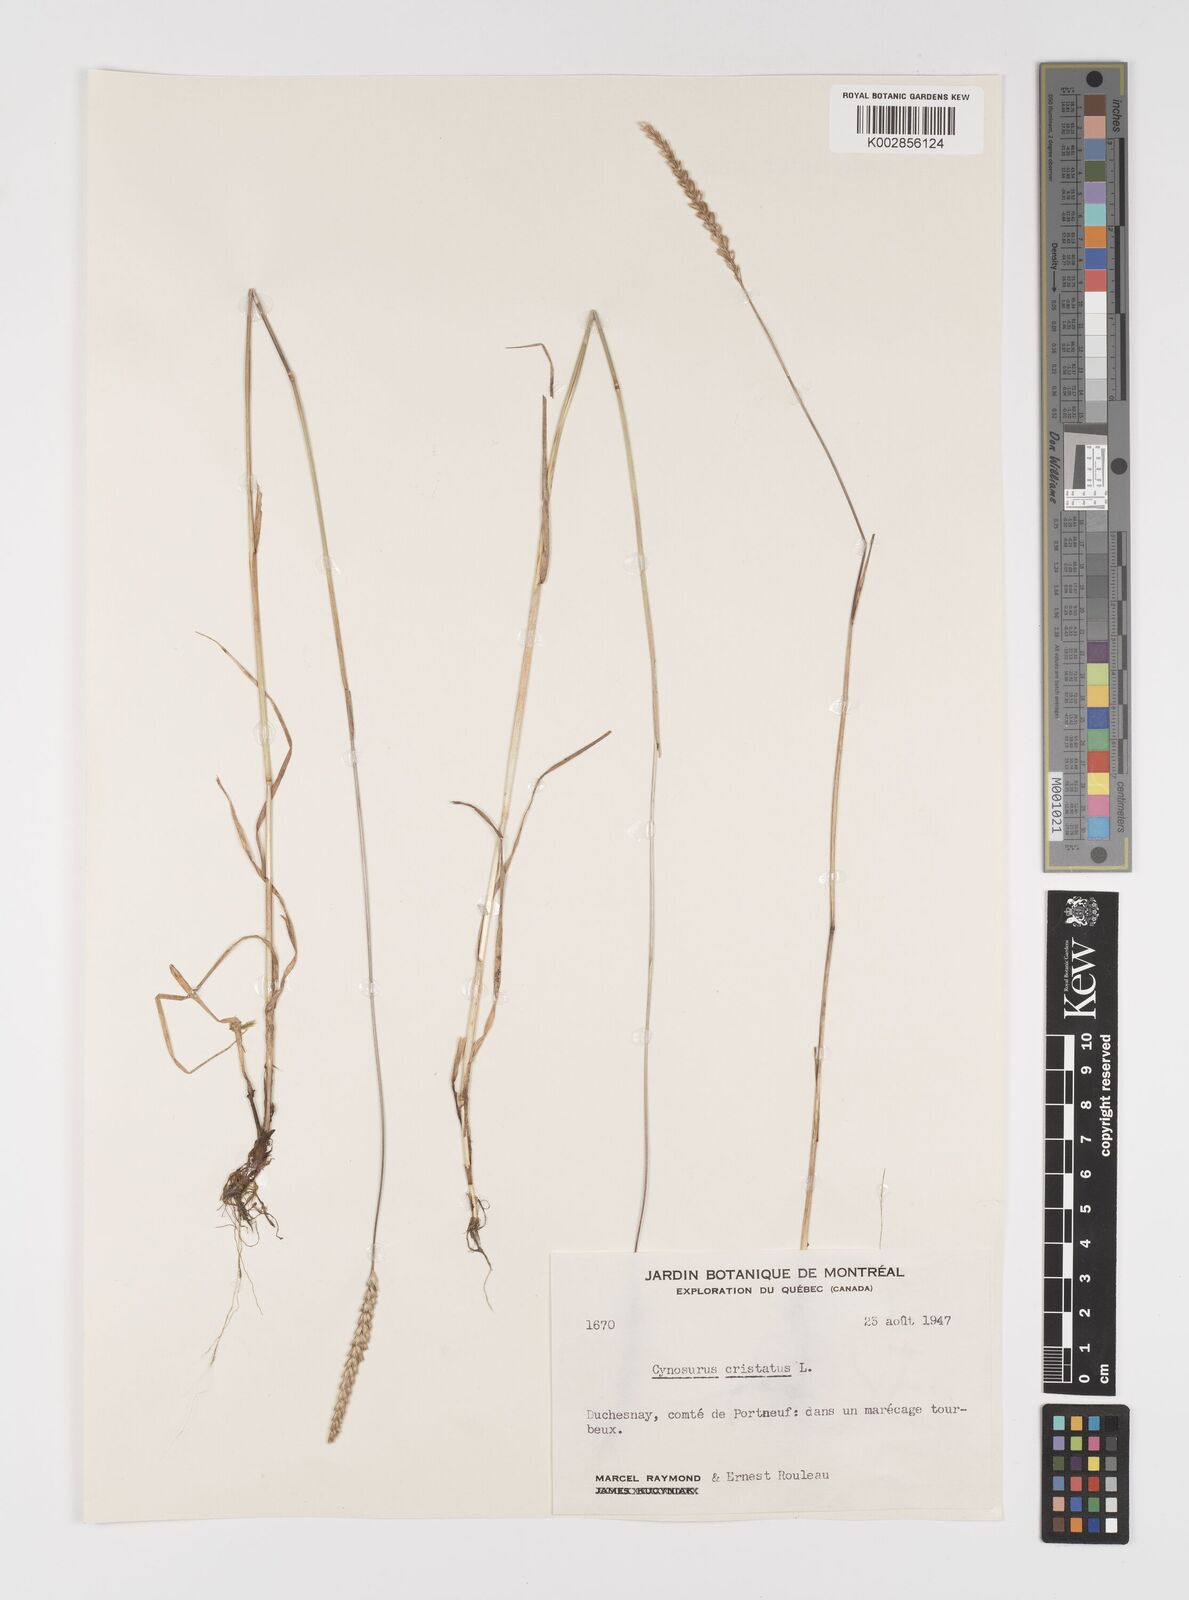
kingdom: Plantae
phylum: Tracheophyta
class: Liliopsida
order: Poales
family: Poaceae
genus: Cynosurus
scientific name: Cynosurus cristatus
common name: Crested dog's-tail
